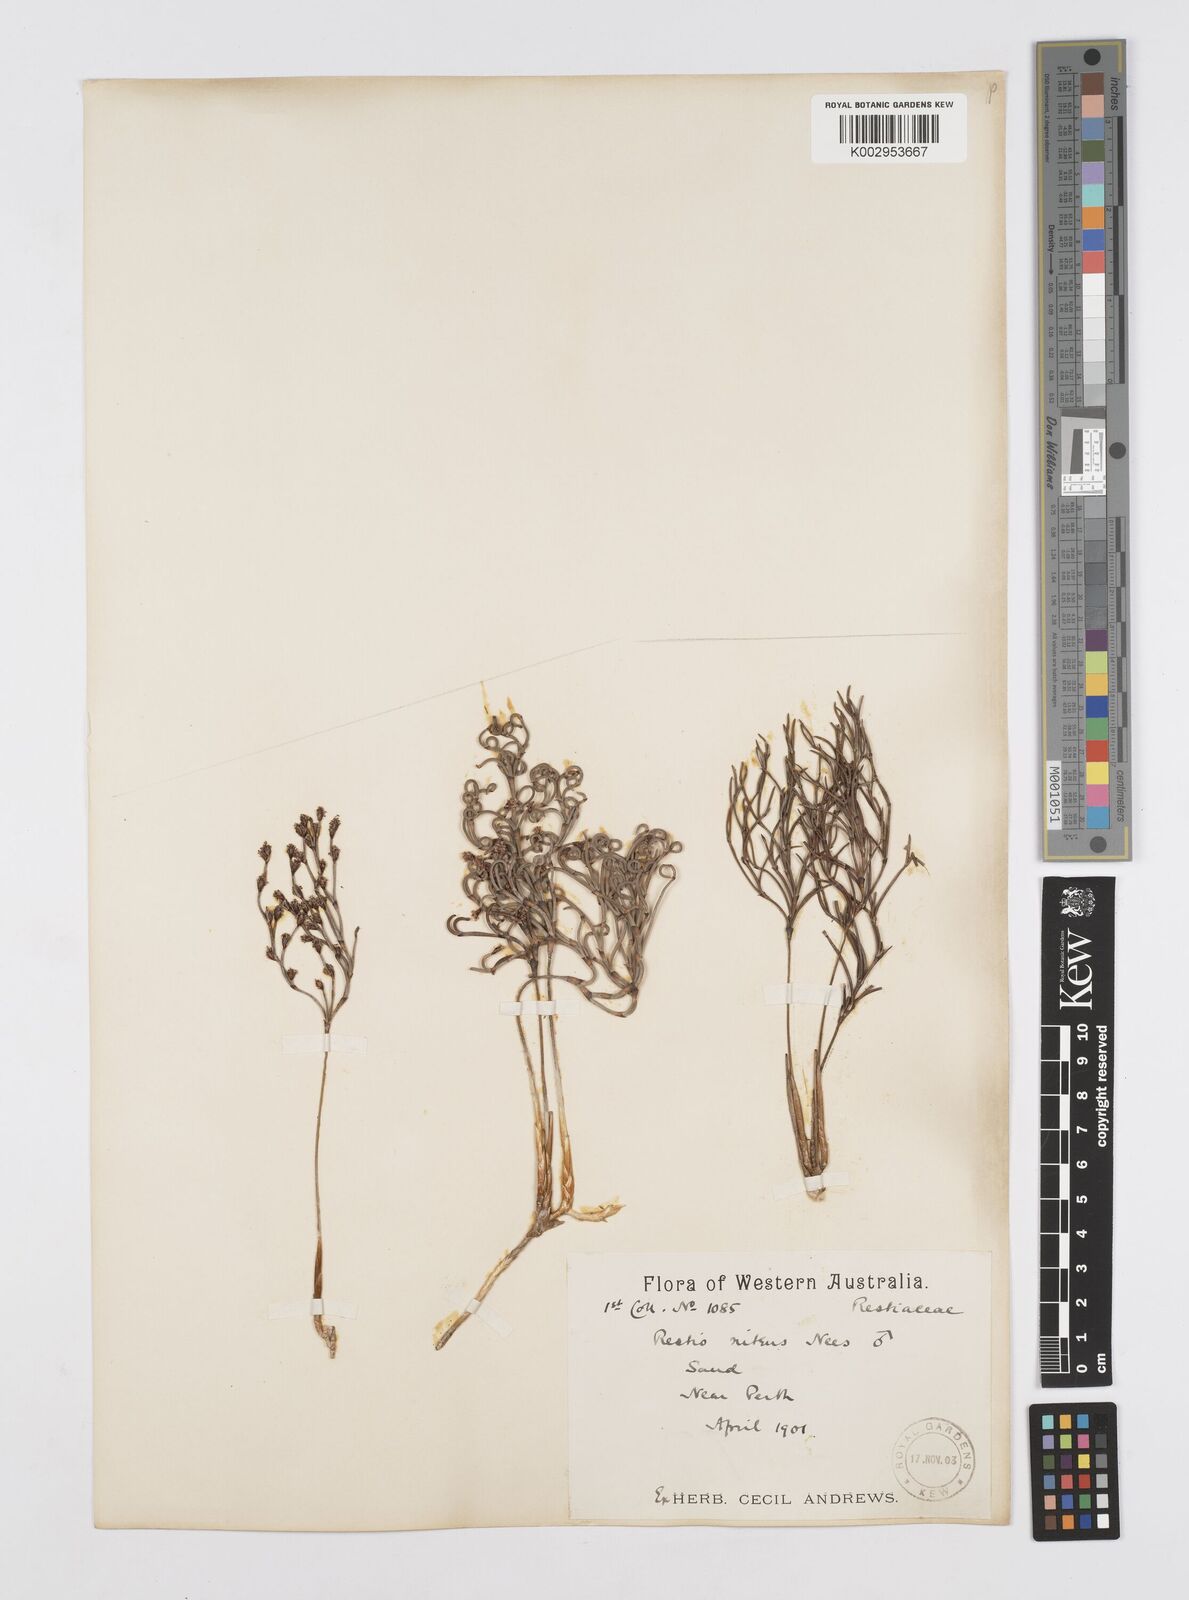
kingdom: Plantae
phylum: Tracheophyta
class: Liliopsida
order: Poales
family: Restionaceae
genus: Alexgeorgea
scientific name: Alexgeorgea nitens
